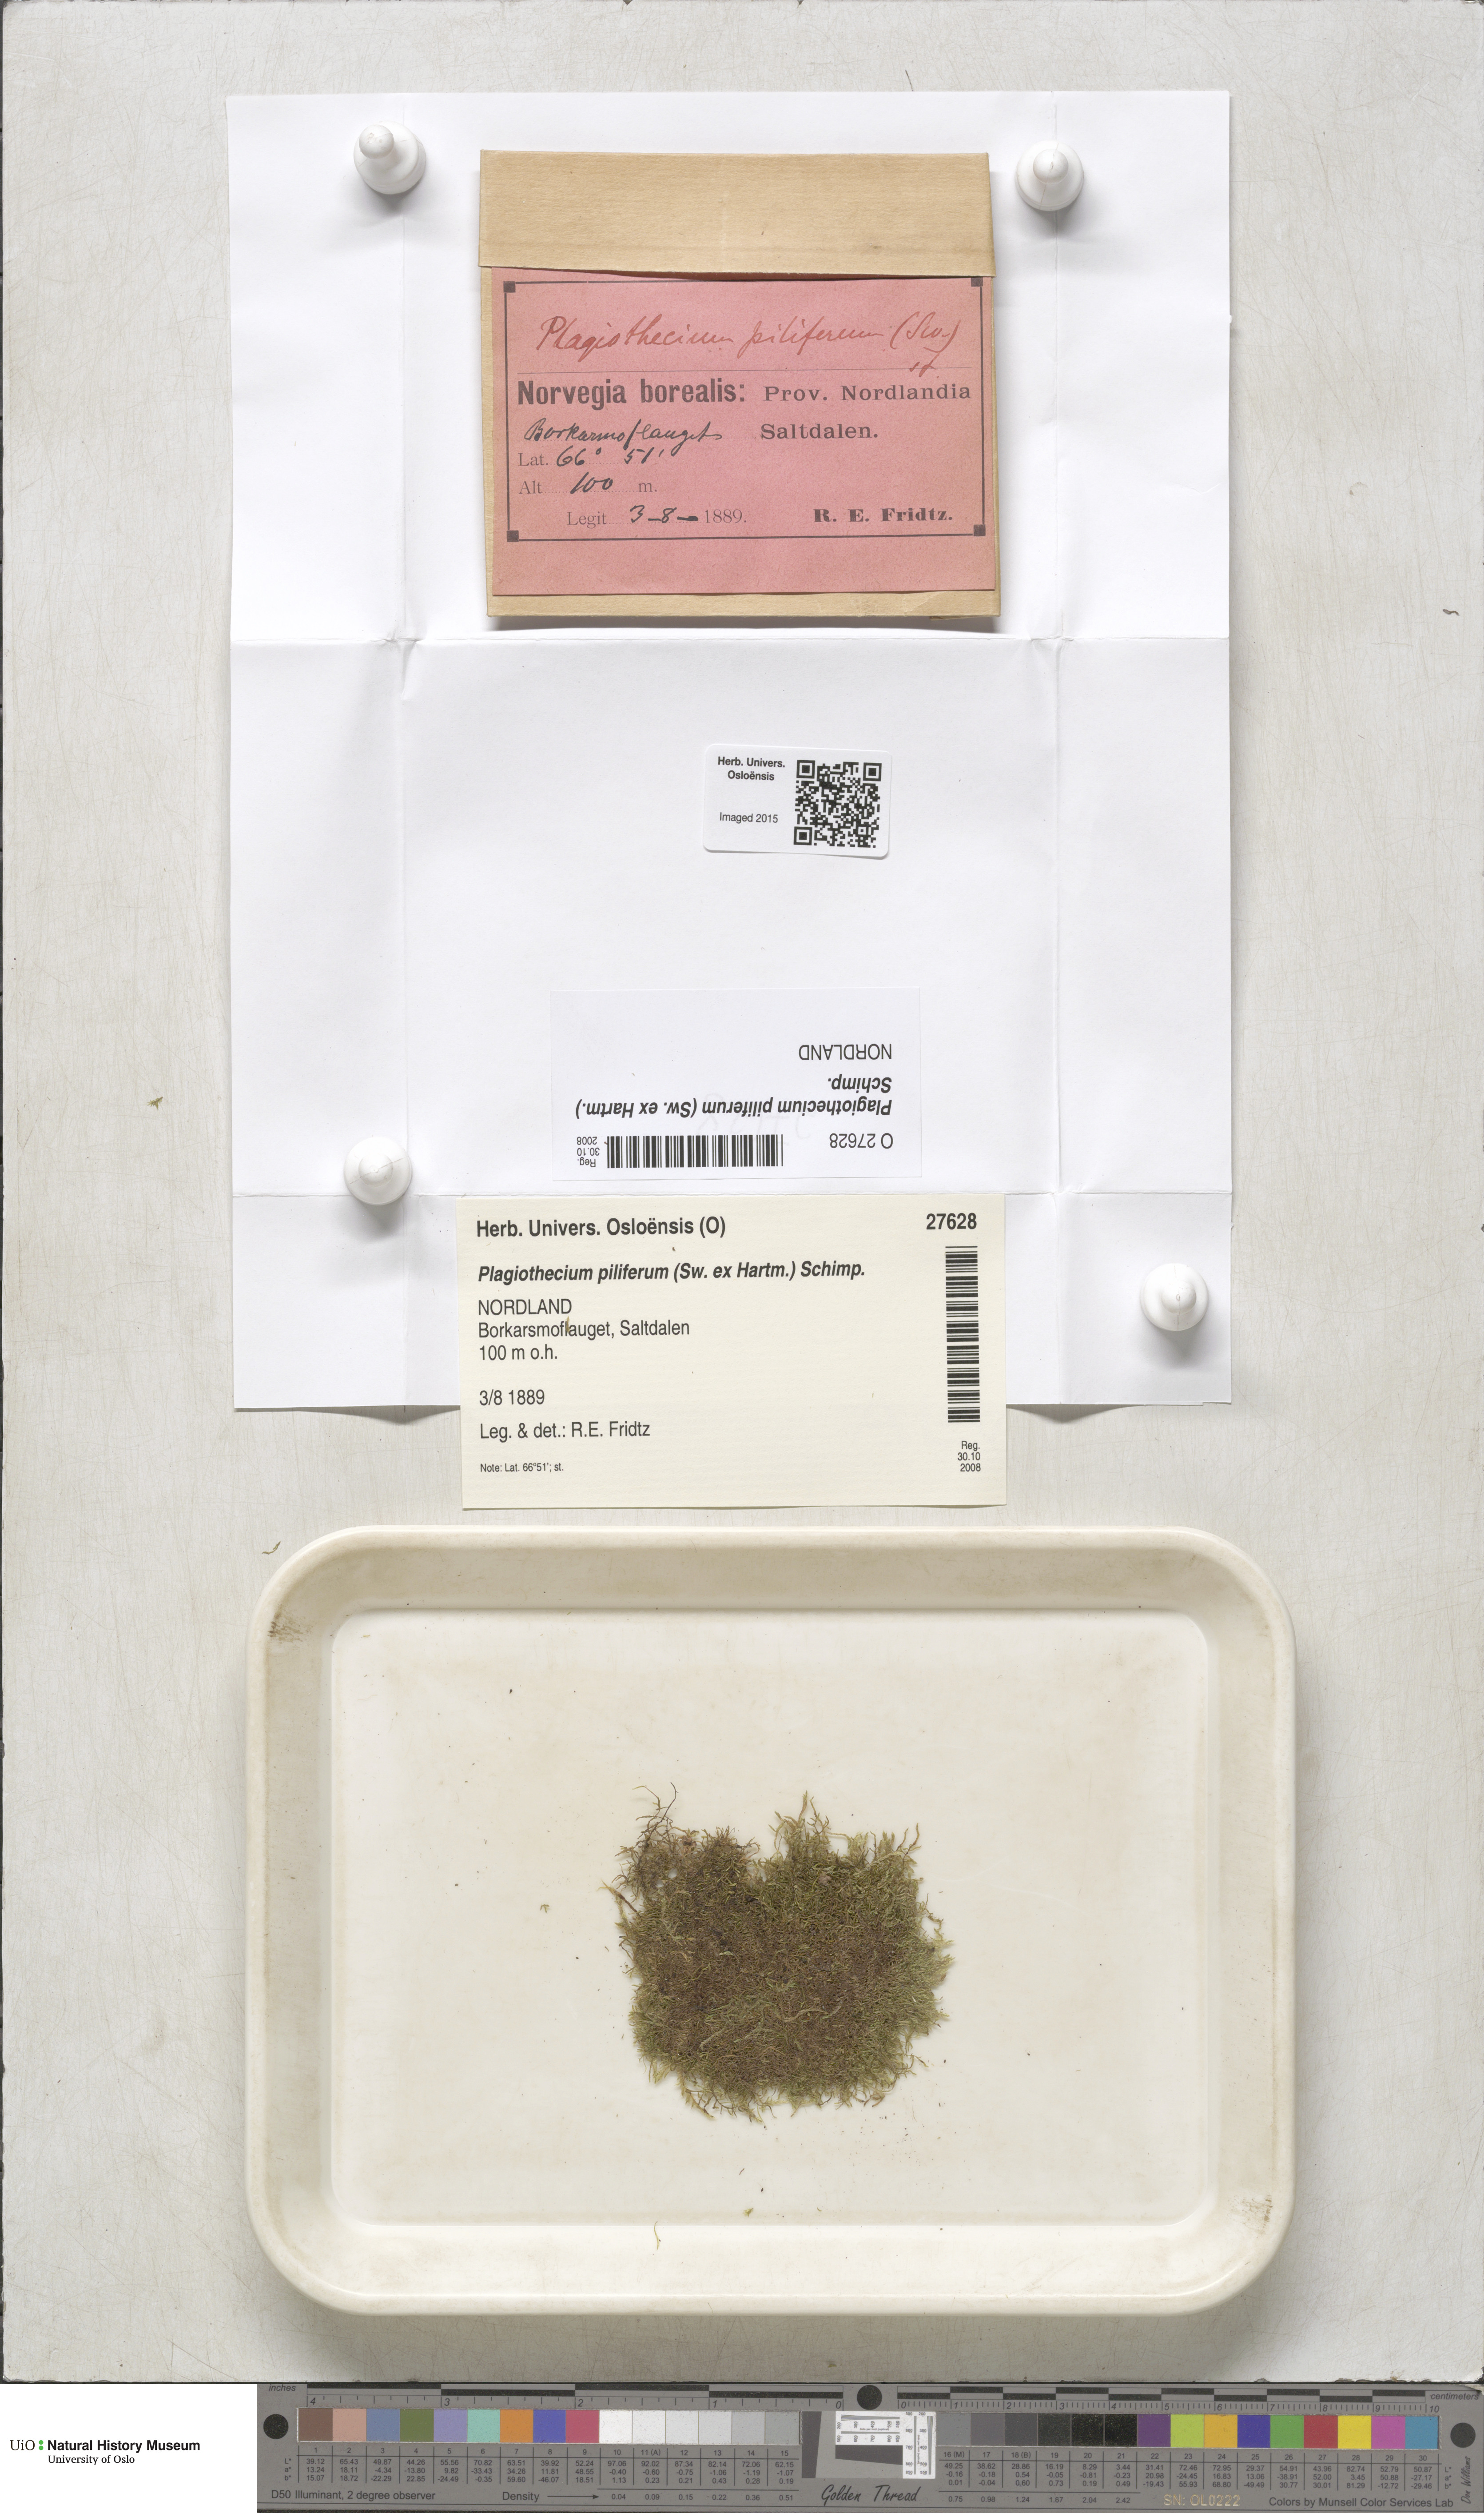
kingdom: Plantae
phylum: Bryophyta
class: Bryopsida
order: Hypnales
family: Plagiotheciaceae
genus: Rectithecium
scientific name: Rectithecium piliferum
